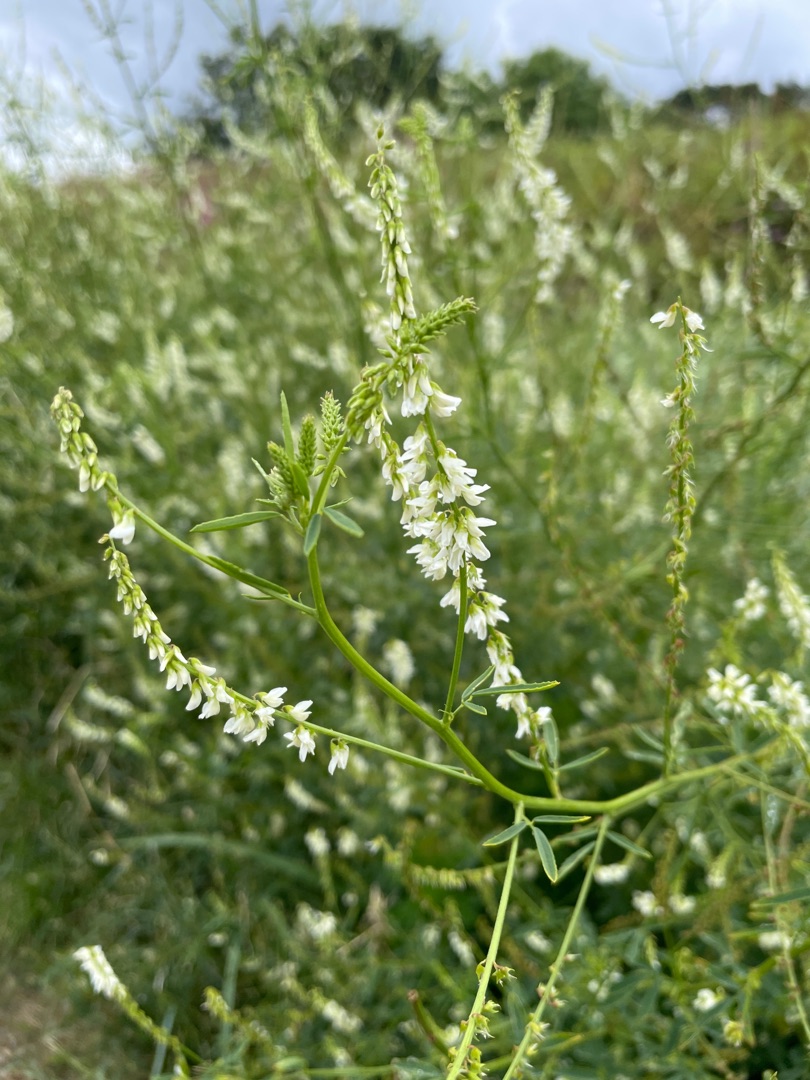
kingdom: Plantae
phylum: Tracheophyta
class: Magnoliopsida
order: Fabales
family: Fabaceae
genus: Melilotus
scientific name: Melilotus albus
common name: Hvid stenkløver
